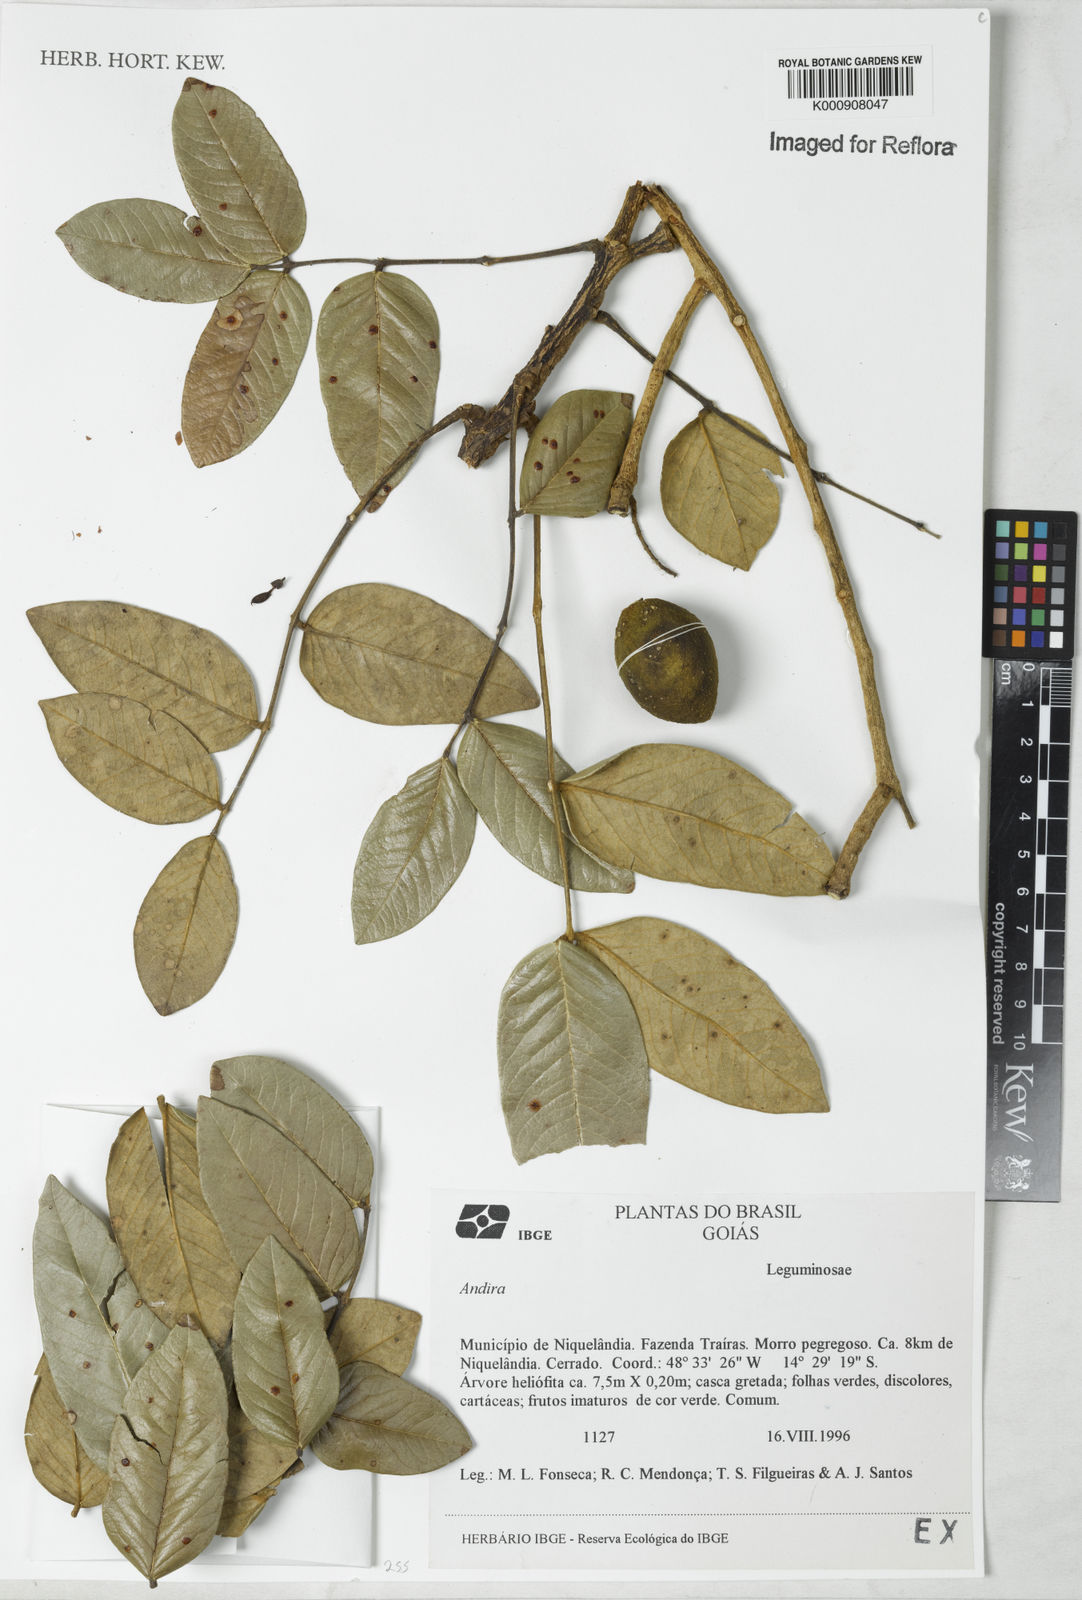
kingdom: Plantae
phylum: Tracheophyta
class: Magnoliopsida
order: Fabales
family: Fabaceae
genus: Andira
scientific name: Andira
